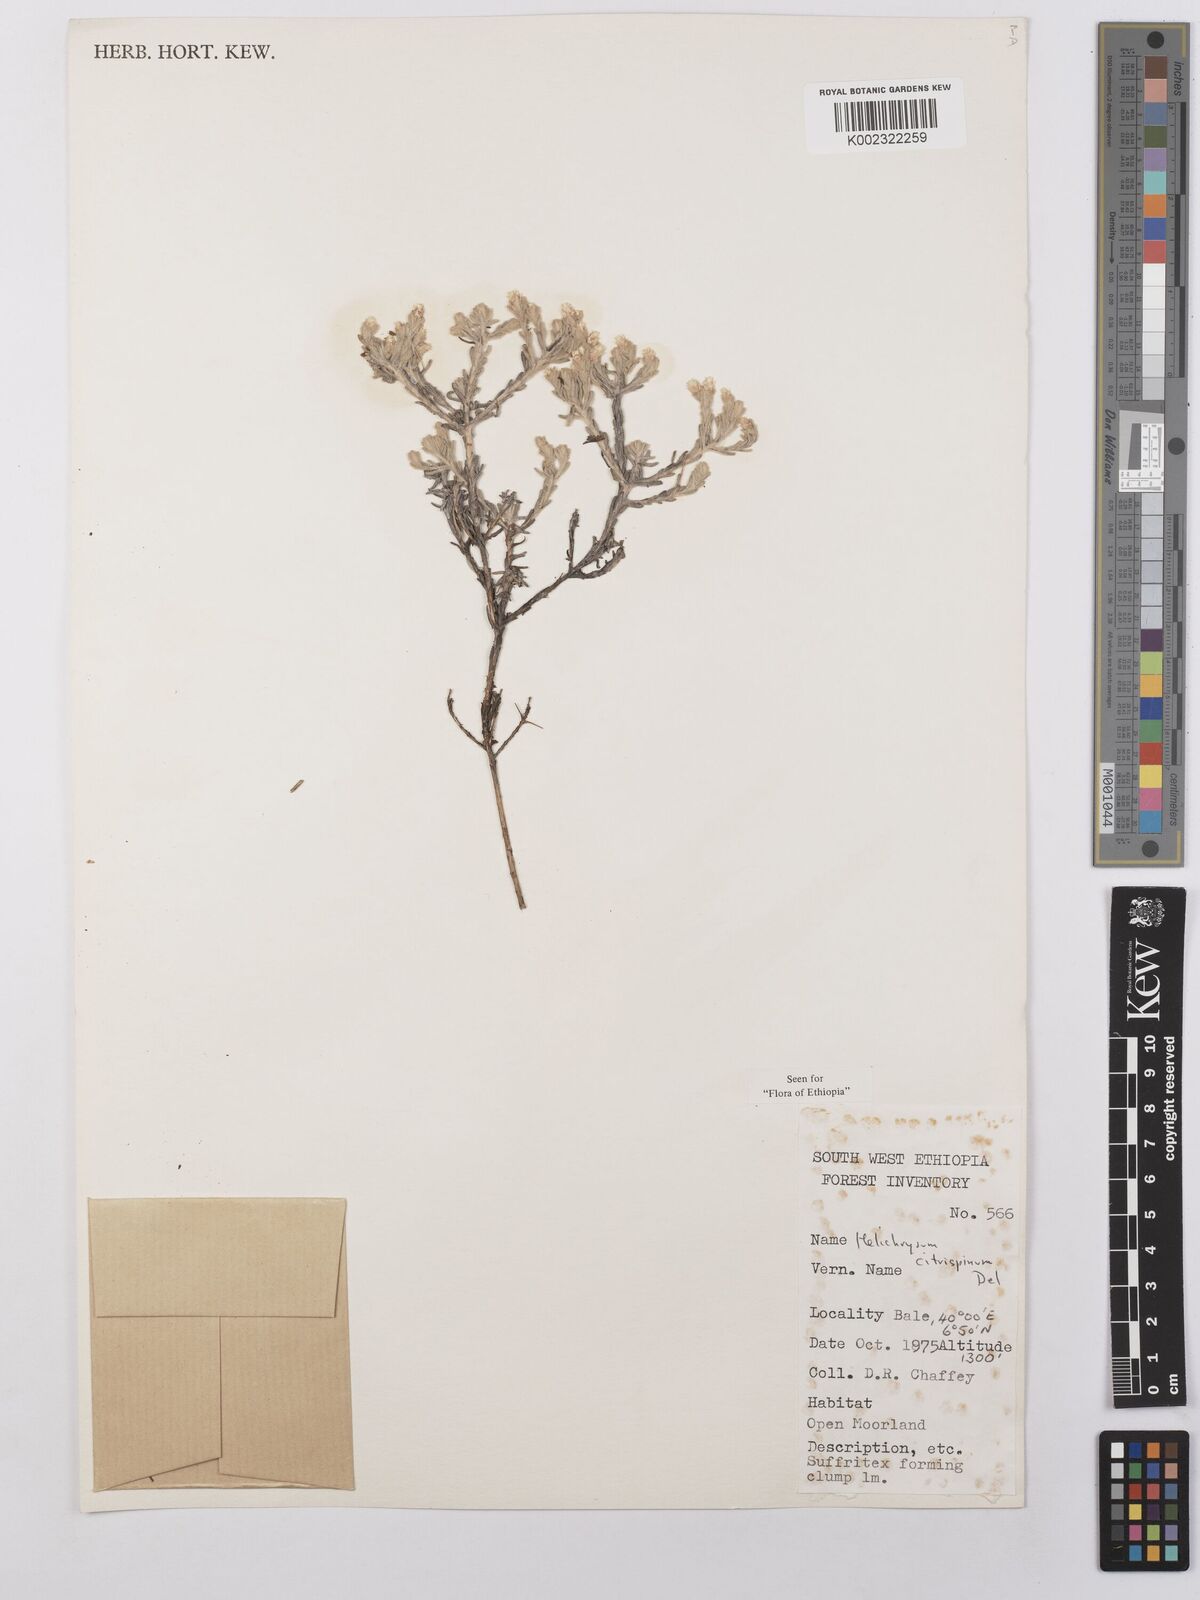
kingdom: Plantae
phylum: Tracheophyta
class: Magnoliopsida
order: Asterales
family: Asteraceae
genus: Helichrysum
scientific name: Helichrysum citrispinum
